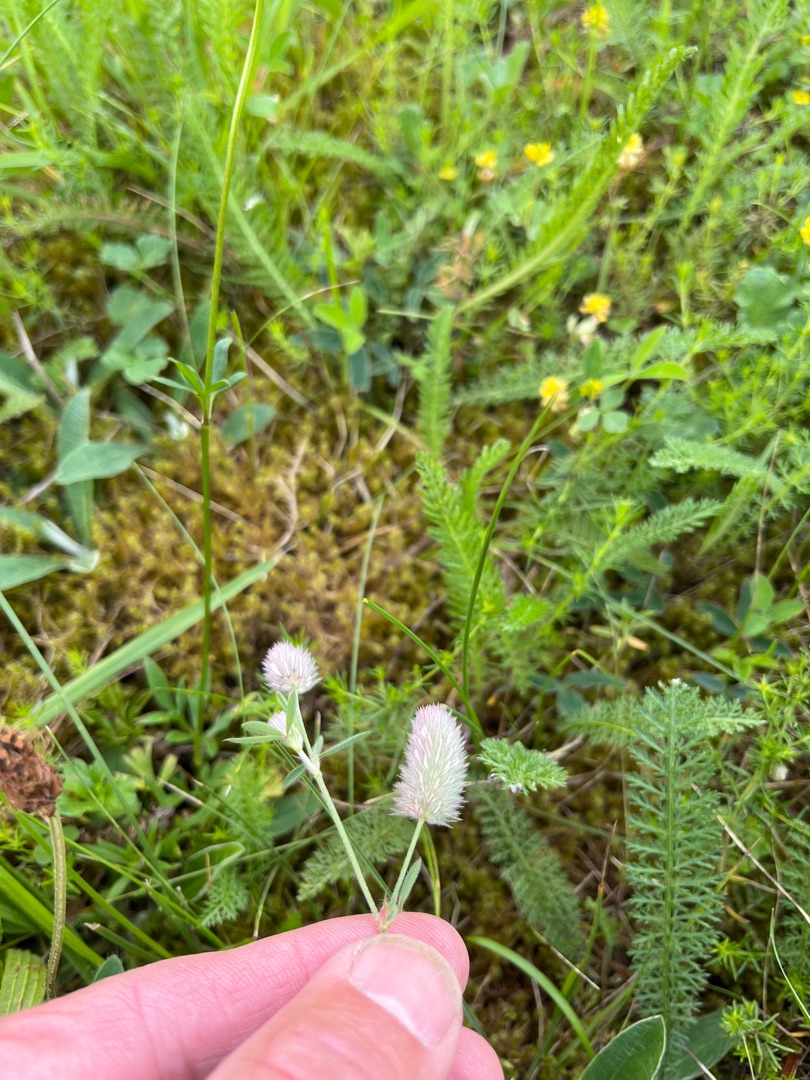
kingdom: Plantae
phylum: Tracheophyta
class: Magnoliopsida
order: Fabales
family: Fabaceae
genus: Trifolium
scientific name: Trifolium arvense
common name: Hare-kløver
